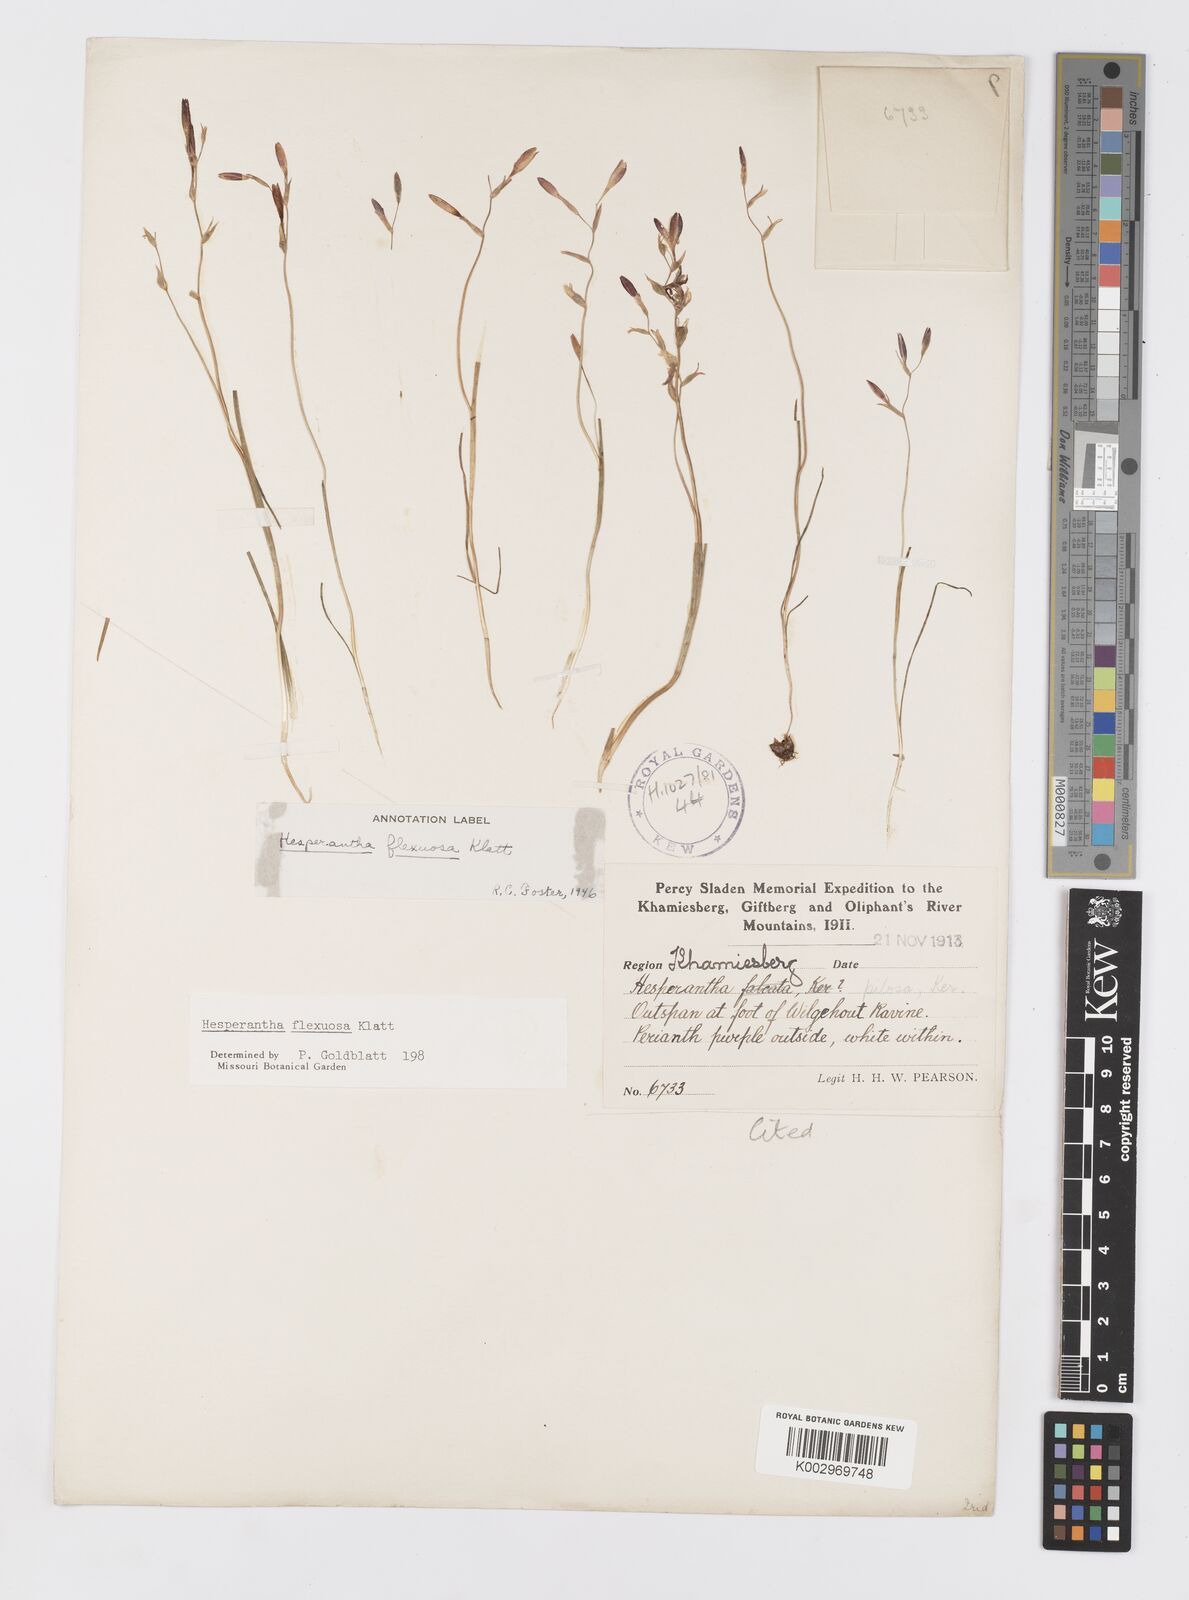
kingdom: Plantae
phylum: Tracheophyta
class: Liliopsida
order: Asparagales
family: Iridaceae
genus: Hesperantha
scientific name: Hesperantha flexuosa
